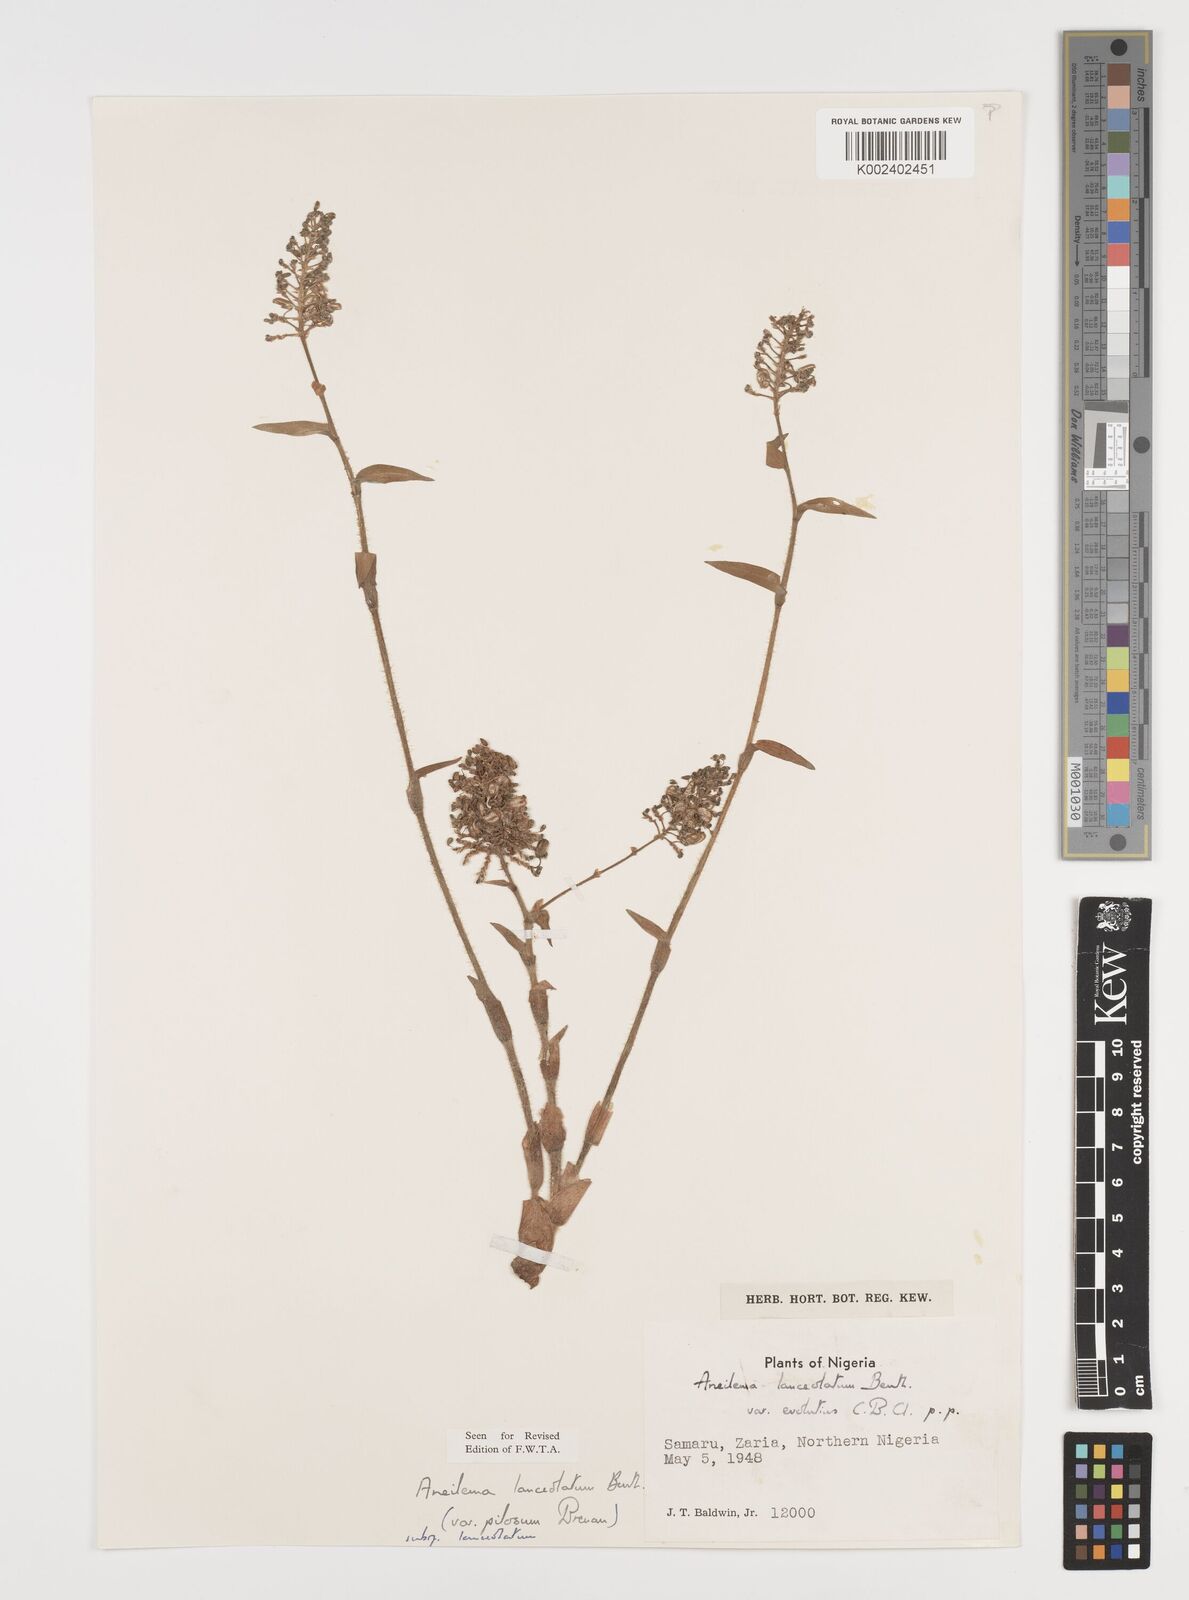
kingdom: Plantae
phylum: Tracheophyta
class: Liliopsida
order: Commelinales
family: Commelinaceae
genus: Aneilema
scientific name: Aneilema lanceolatum
